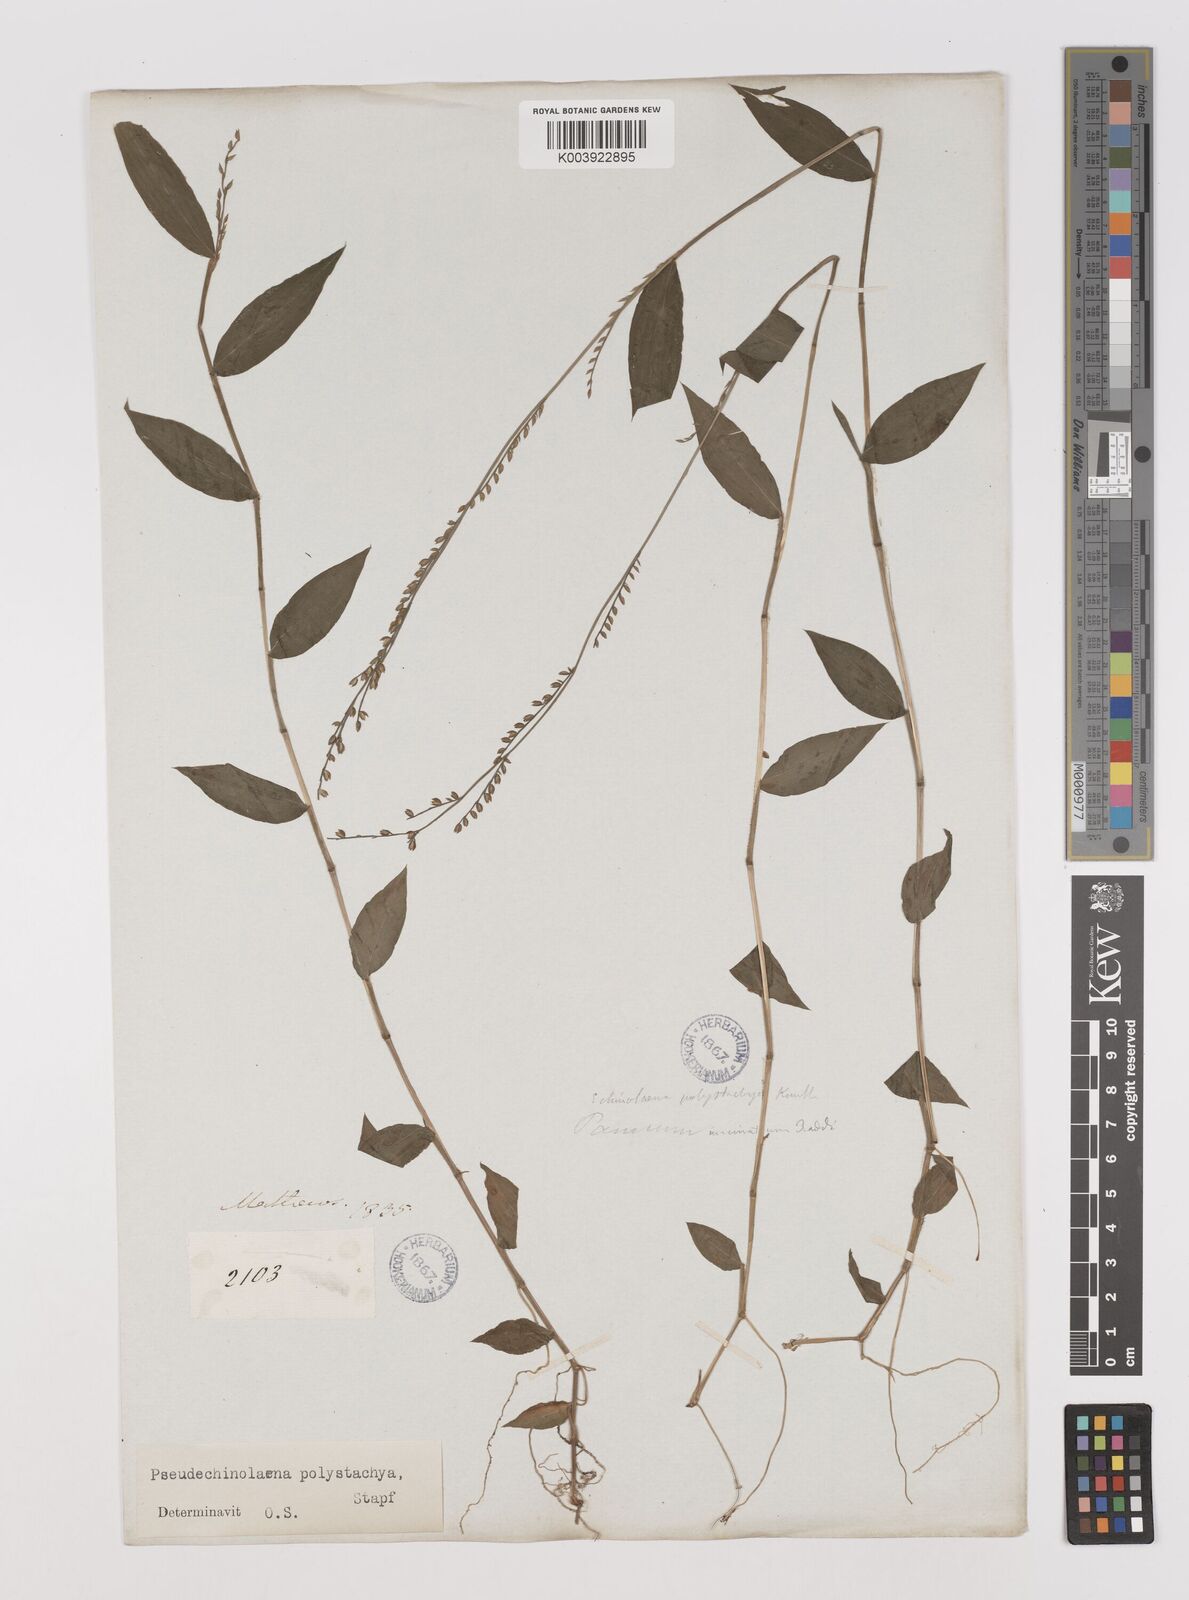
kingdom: Plantae
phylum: Tracheophyta
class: Liliopsida
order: Poales
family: Poaceae
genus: Pseudechinolaena
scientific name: Pseudechinolaena polystachya
